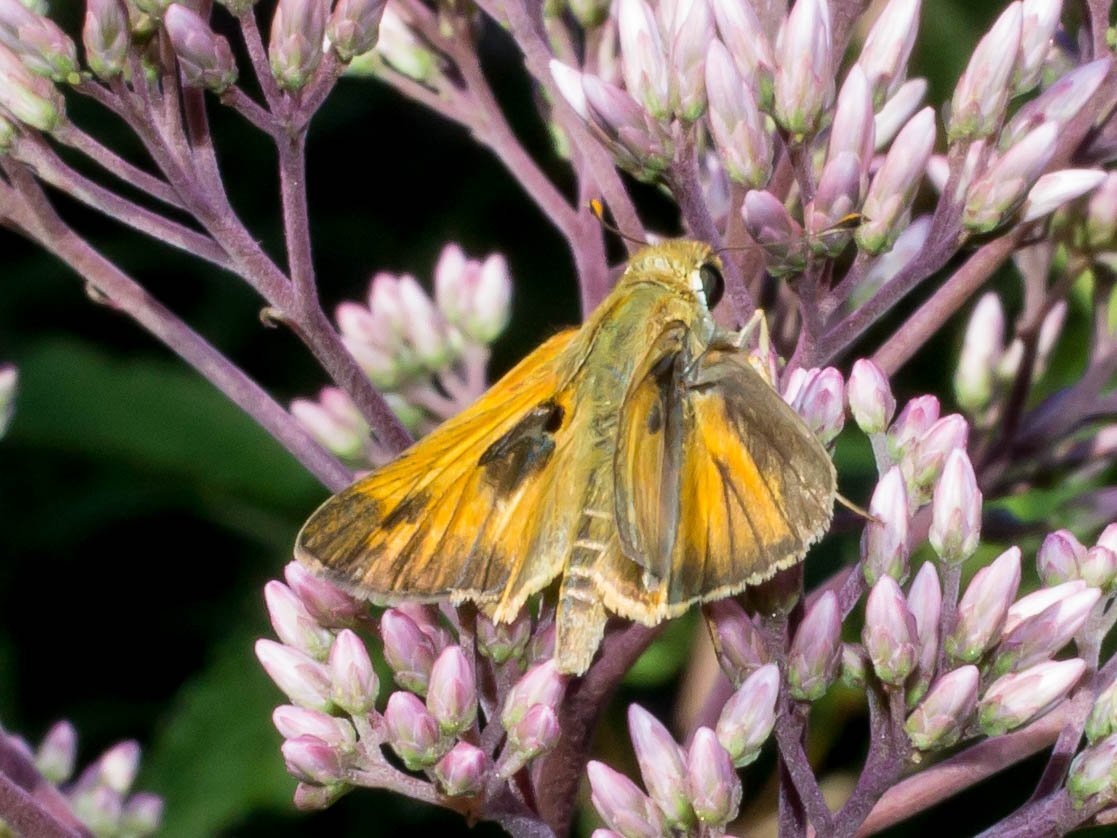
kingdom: Animalia
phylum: Arthropoda
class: Insecta
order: Lepidoptera
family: Hesperiidae
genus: Atalopedes
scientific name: Atalopedes campestris
